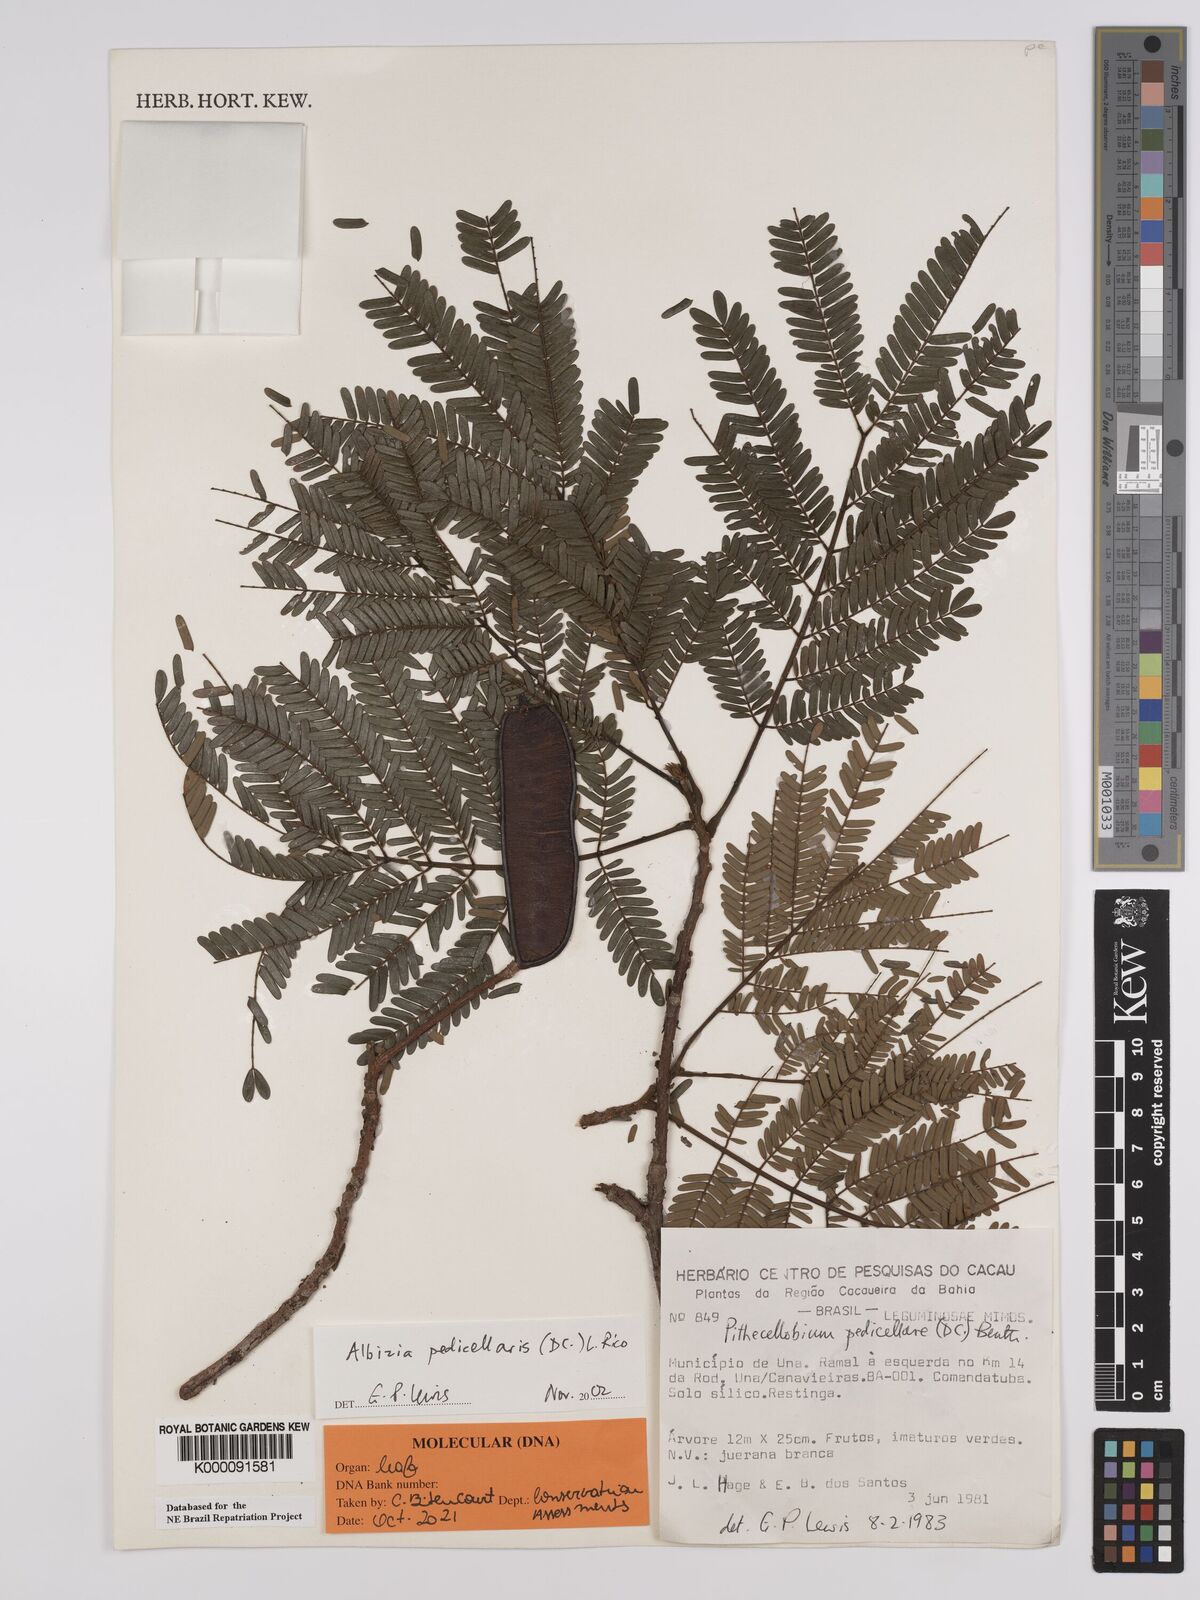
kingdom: Plantae
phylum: Tracheophyta
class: Magnoliopsida
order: Fabales
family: Fabaceae
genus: Balizia
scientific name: Balizia pedicellaris
